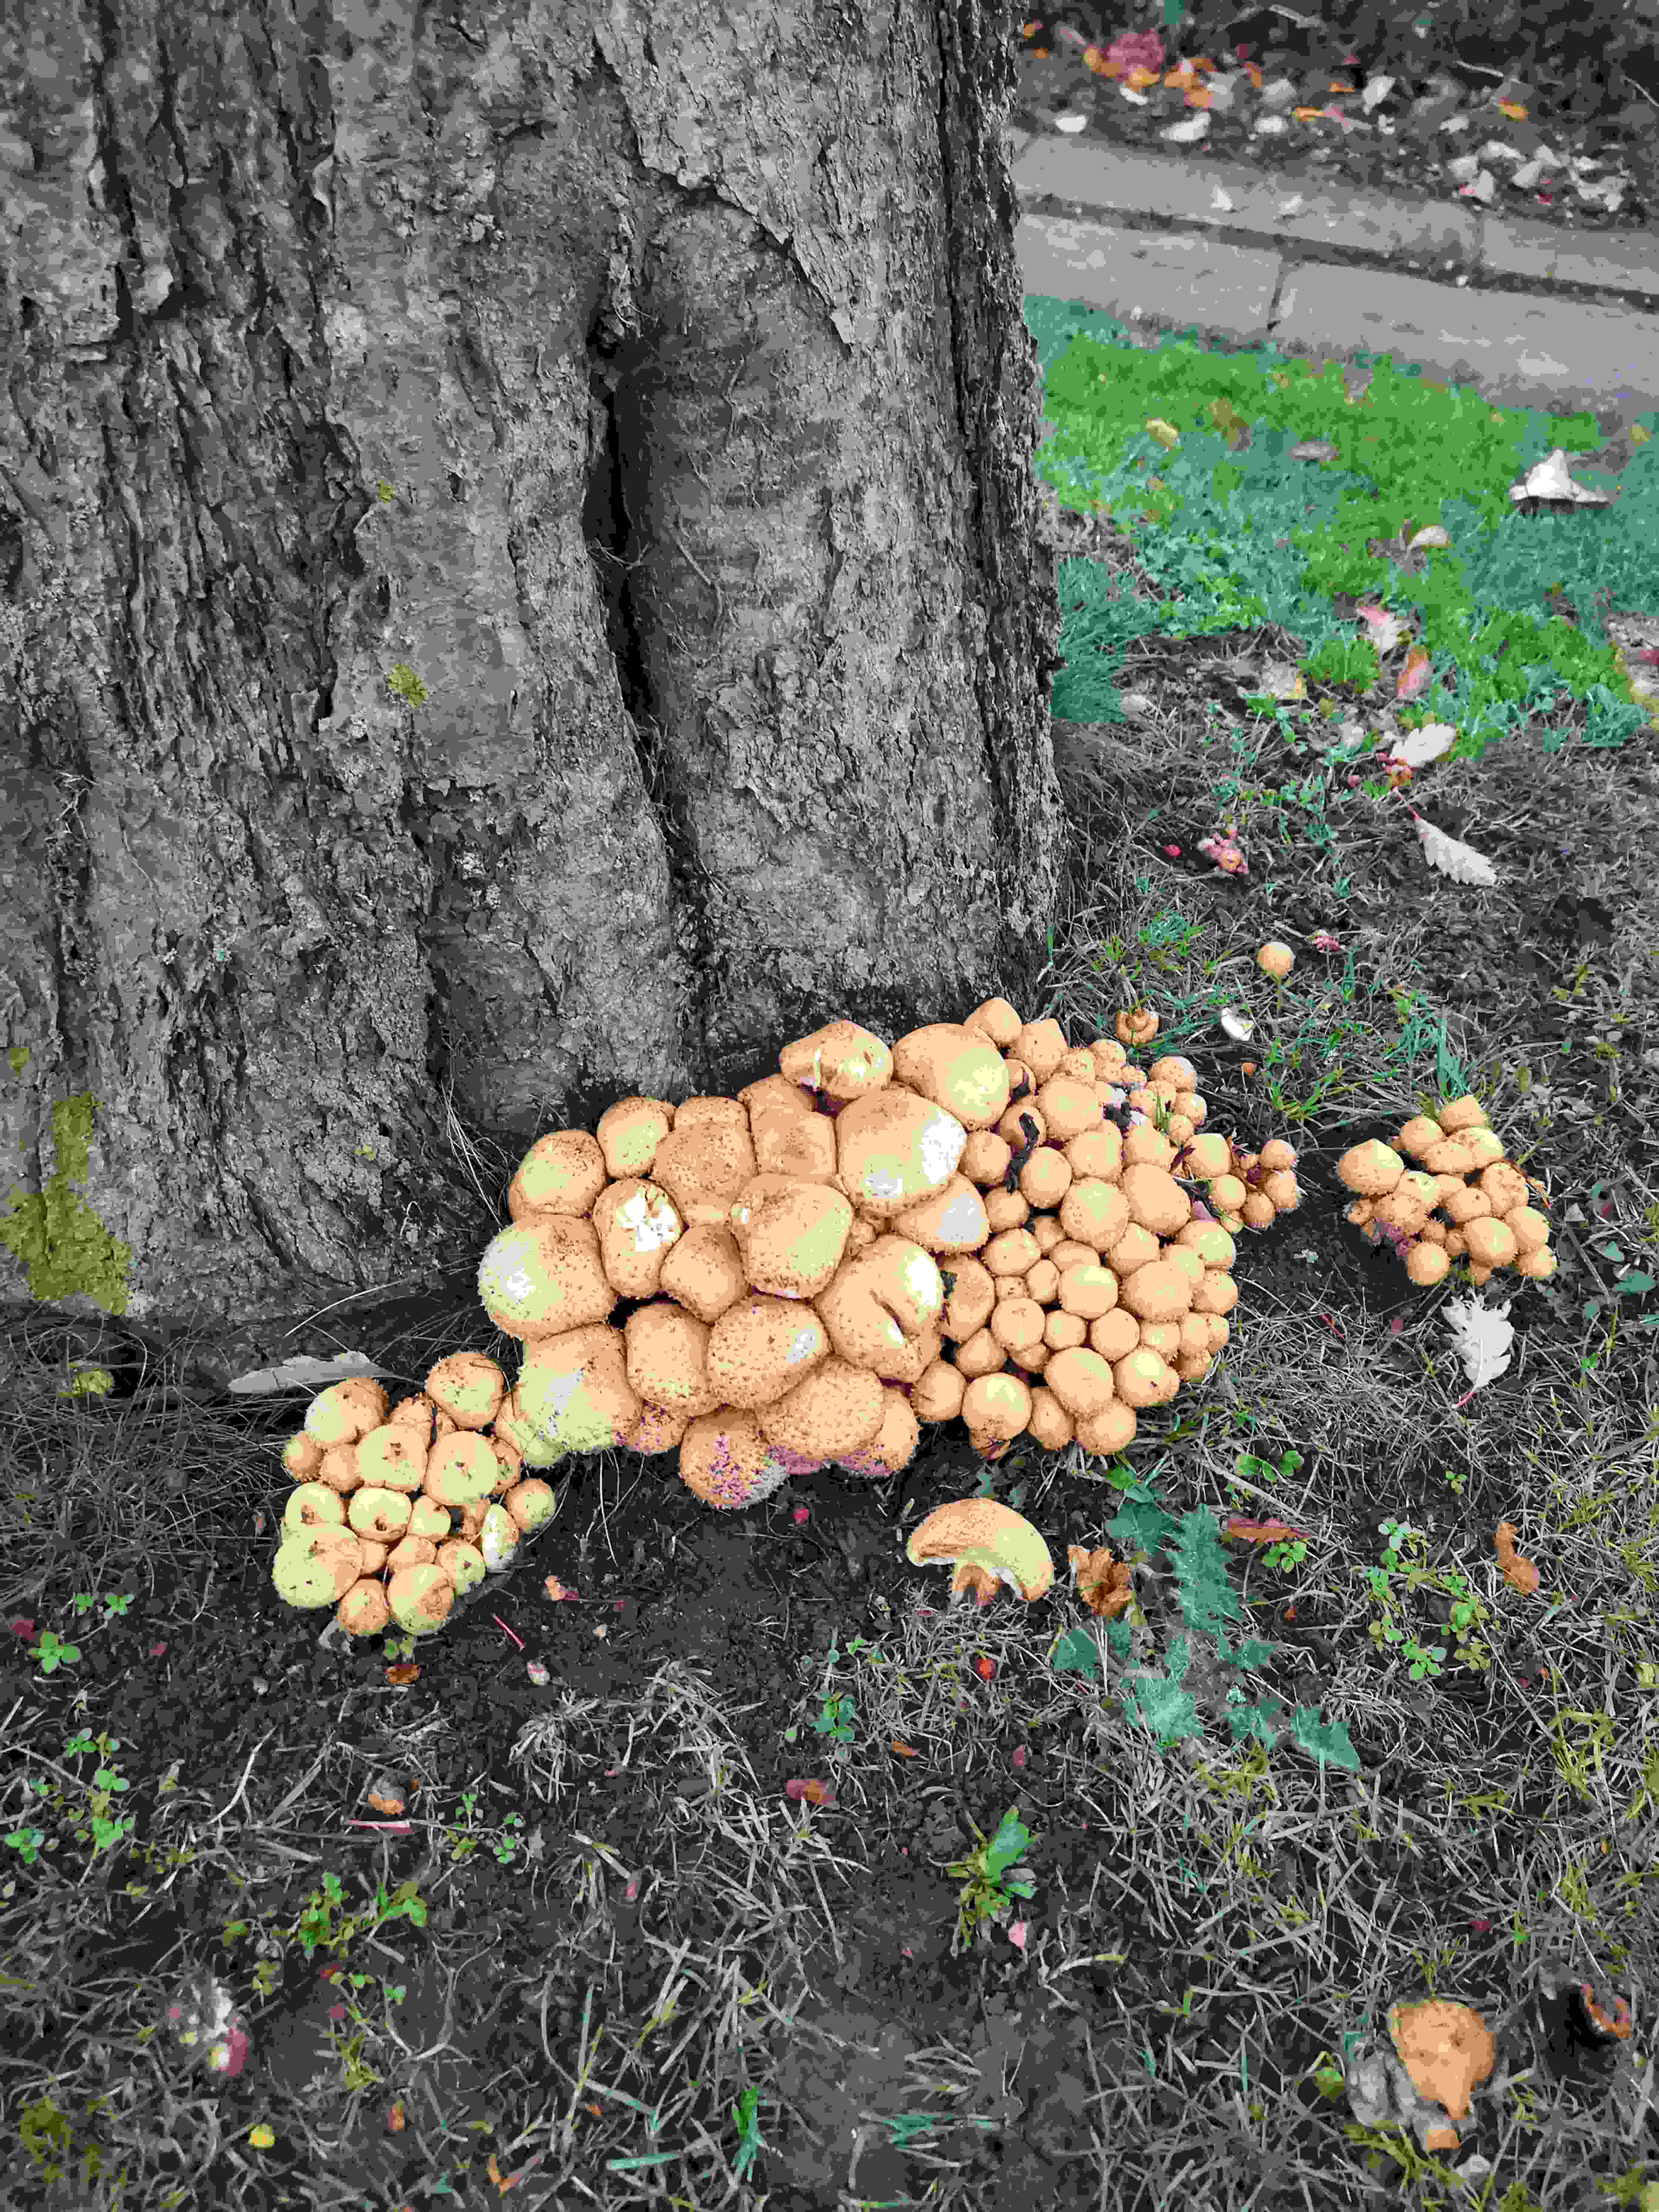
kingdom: Fungi
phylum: Basidiomycota
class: Agaricomycetes
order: Agaricales
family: Strophariaceae
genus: Pholiota
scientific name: Pholiota squarrosa
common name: krumskællet skælhat
